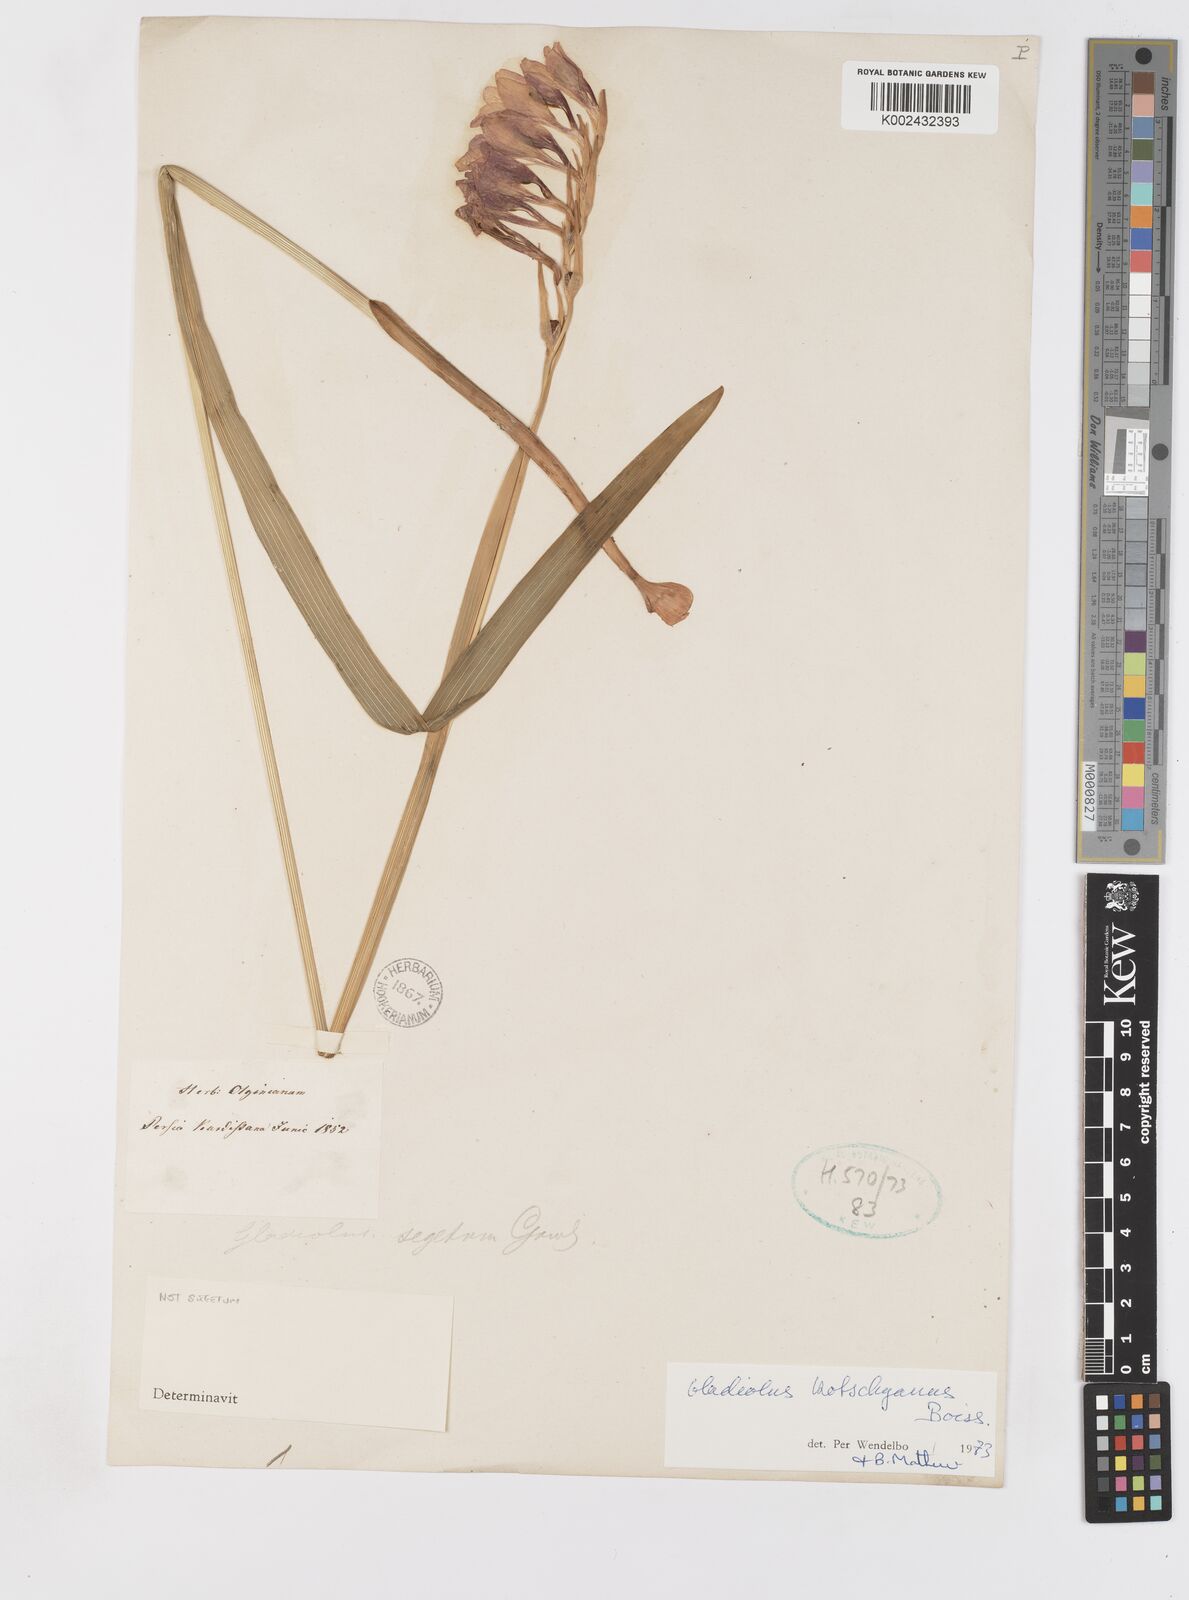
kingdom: Plantae
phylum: Tracheophyta
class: Liliopsida
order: Asparagales
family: Iridaceae
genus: Gladiolus
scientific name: Gladiolus kotschyanus
